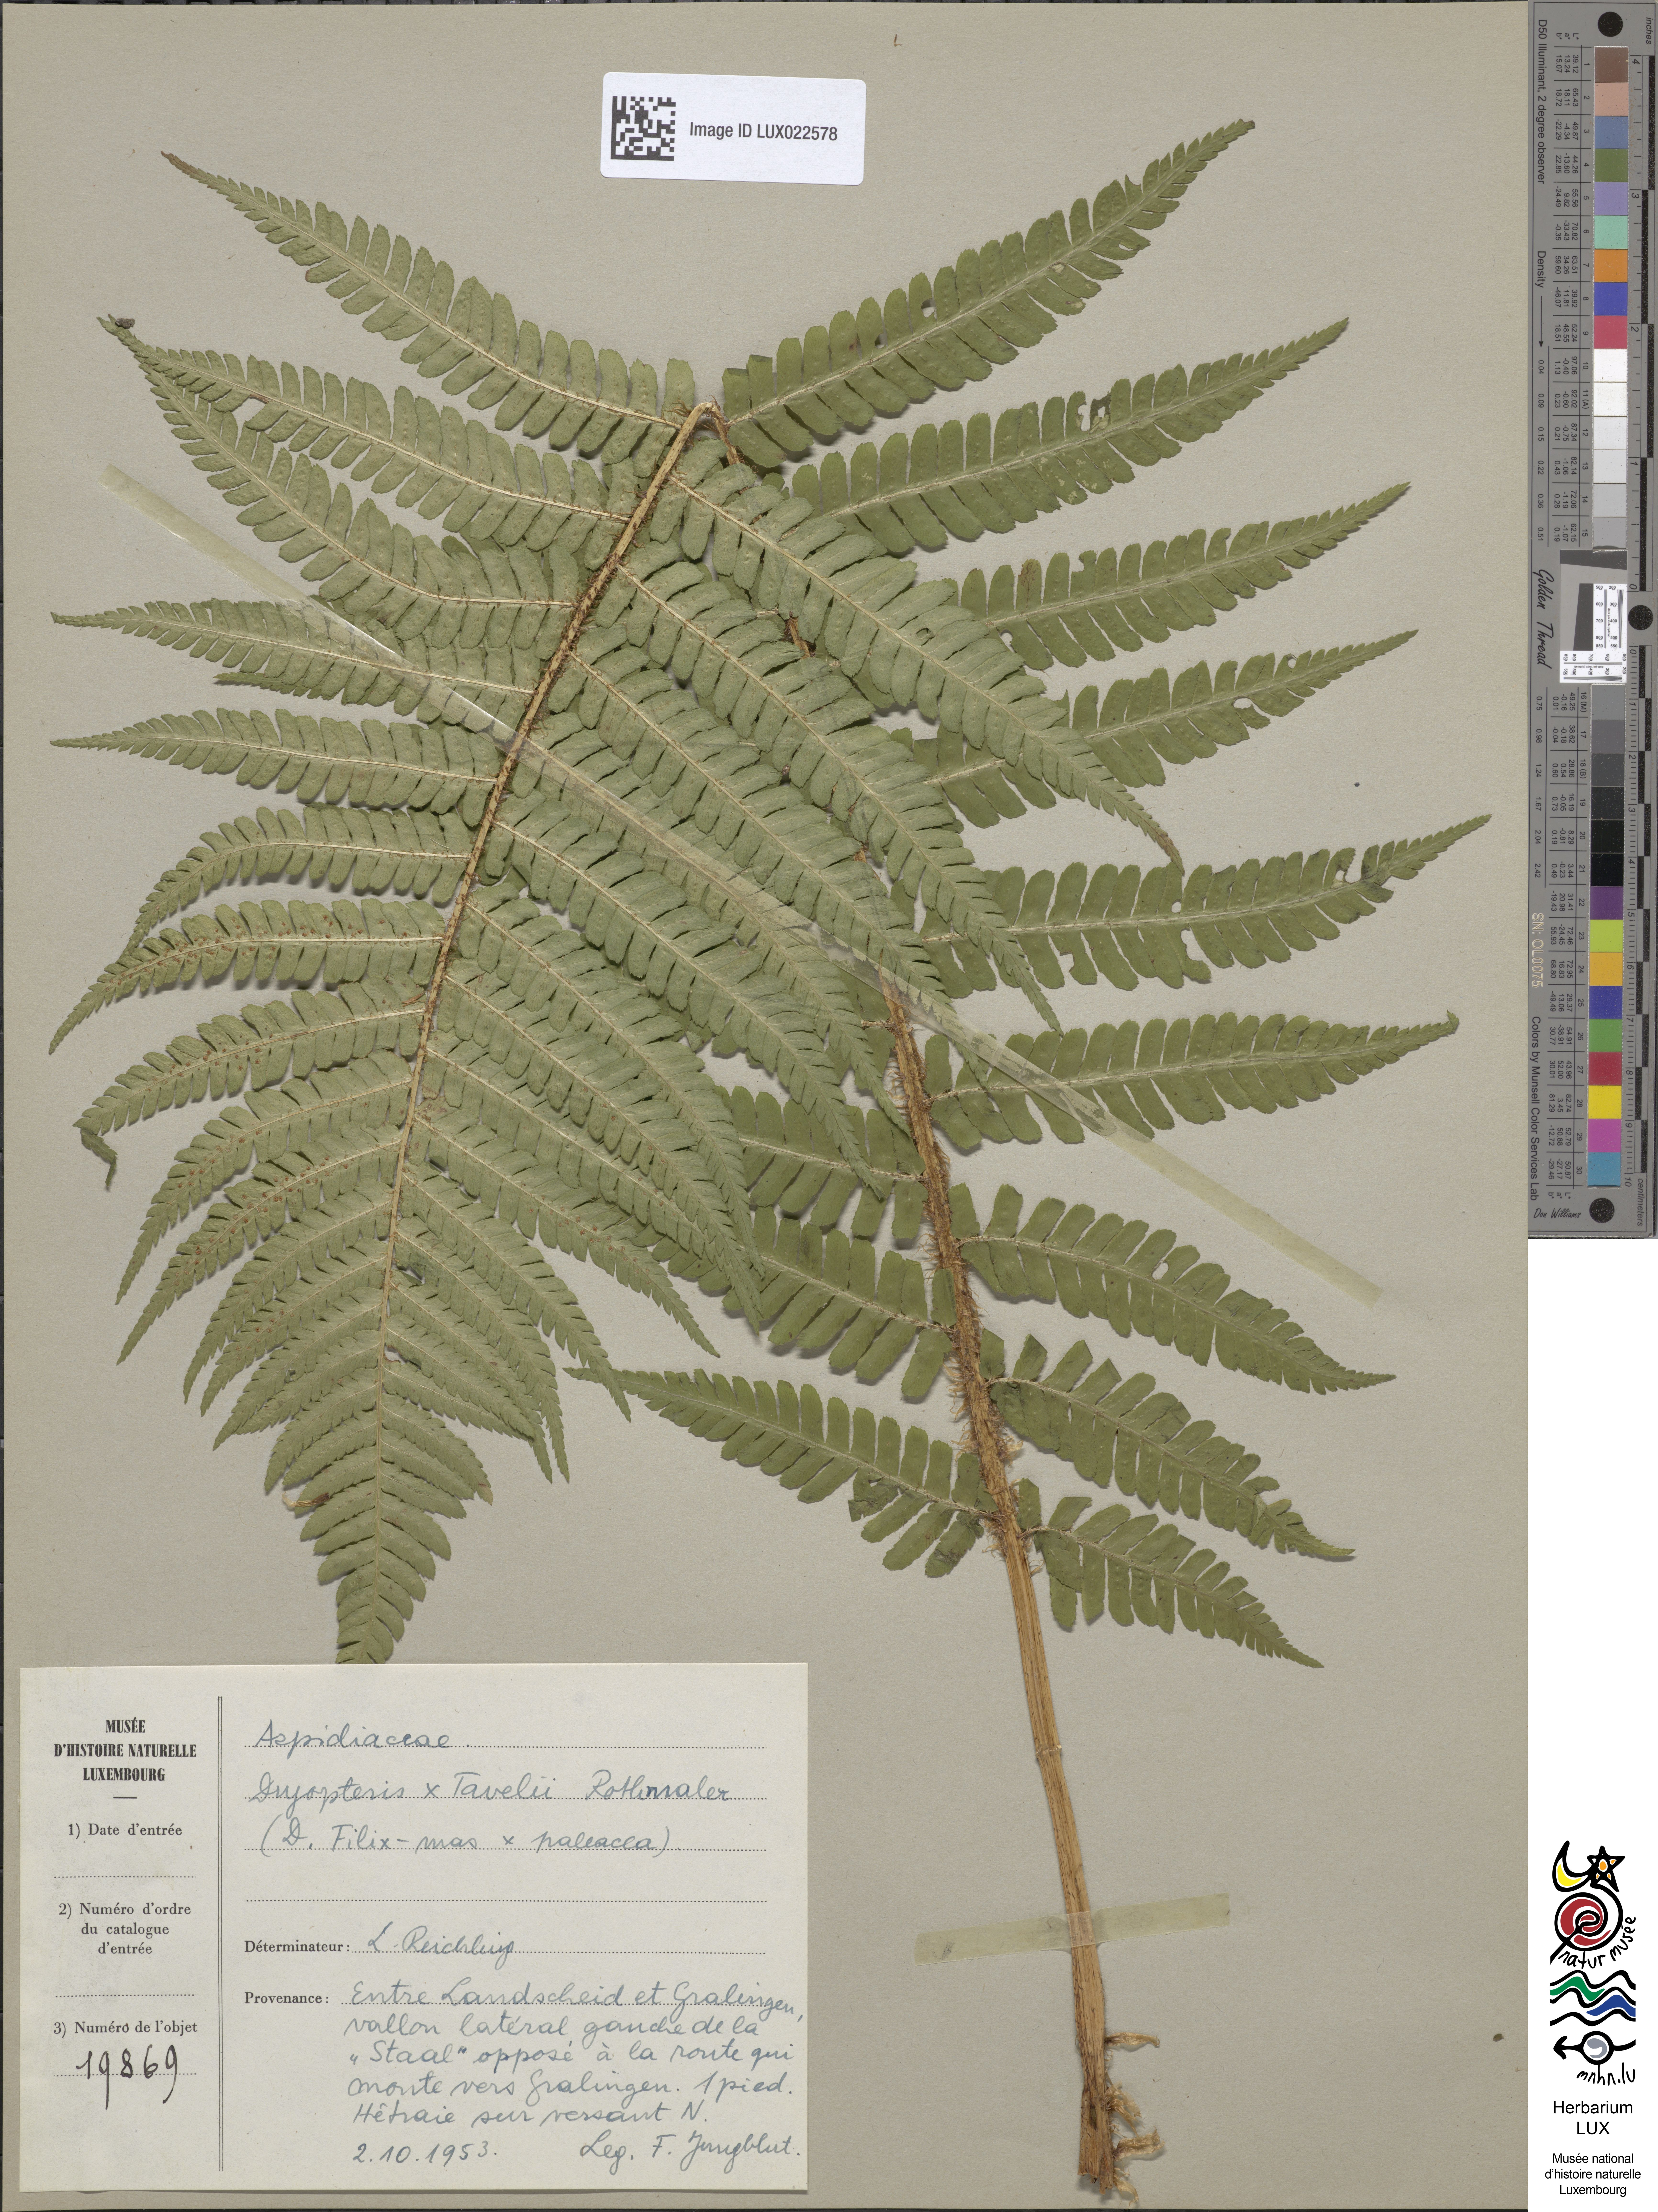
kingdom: Plantae
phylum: Tracheophyta
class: Polypodiopsida
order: Polypodiales
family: Dryopteridaceae
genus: Dryopteris
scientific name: Dryopteris borreri
